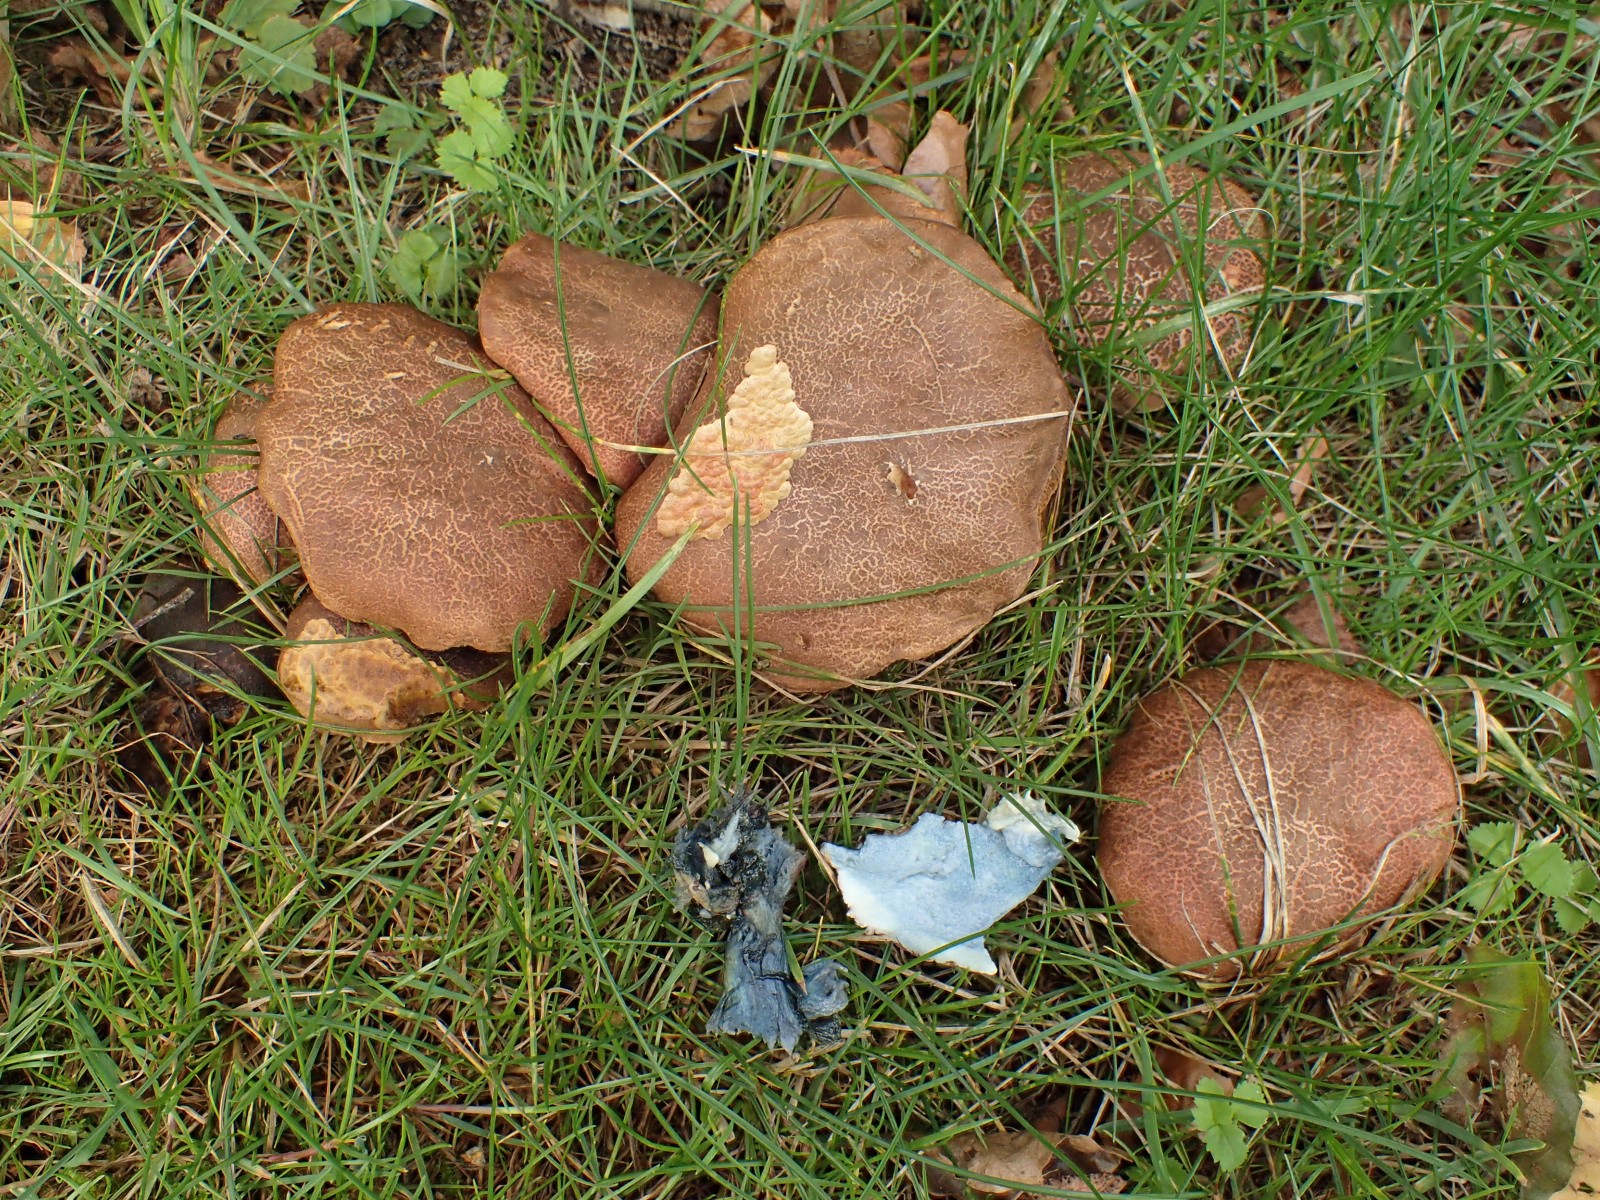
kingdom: Fungi
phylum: Basidiomycota
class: Agaricomycetes
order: Boletales
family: Boletaceae
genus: Xerocomellus
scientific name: Xerocomellus cisalpinus
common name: finsprukken rørhat
